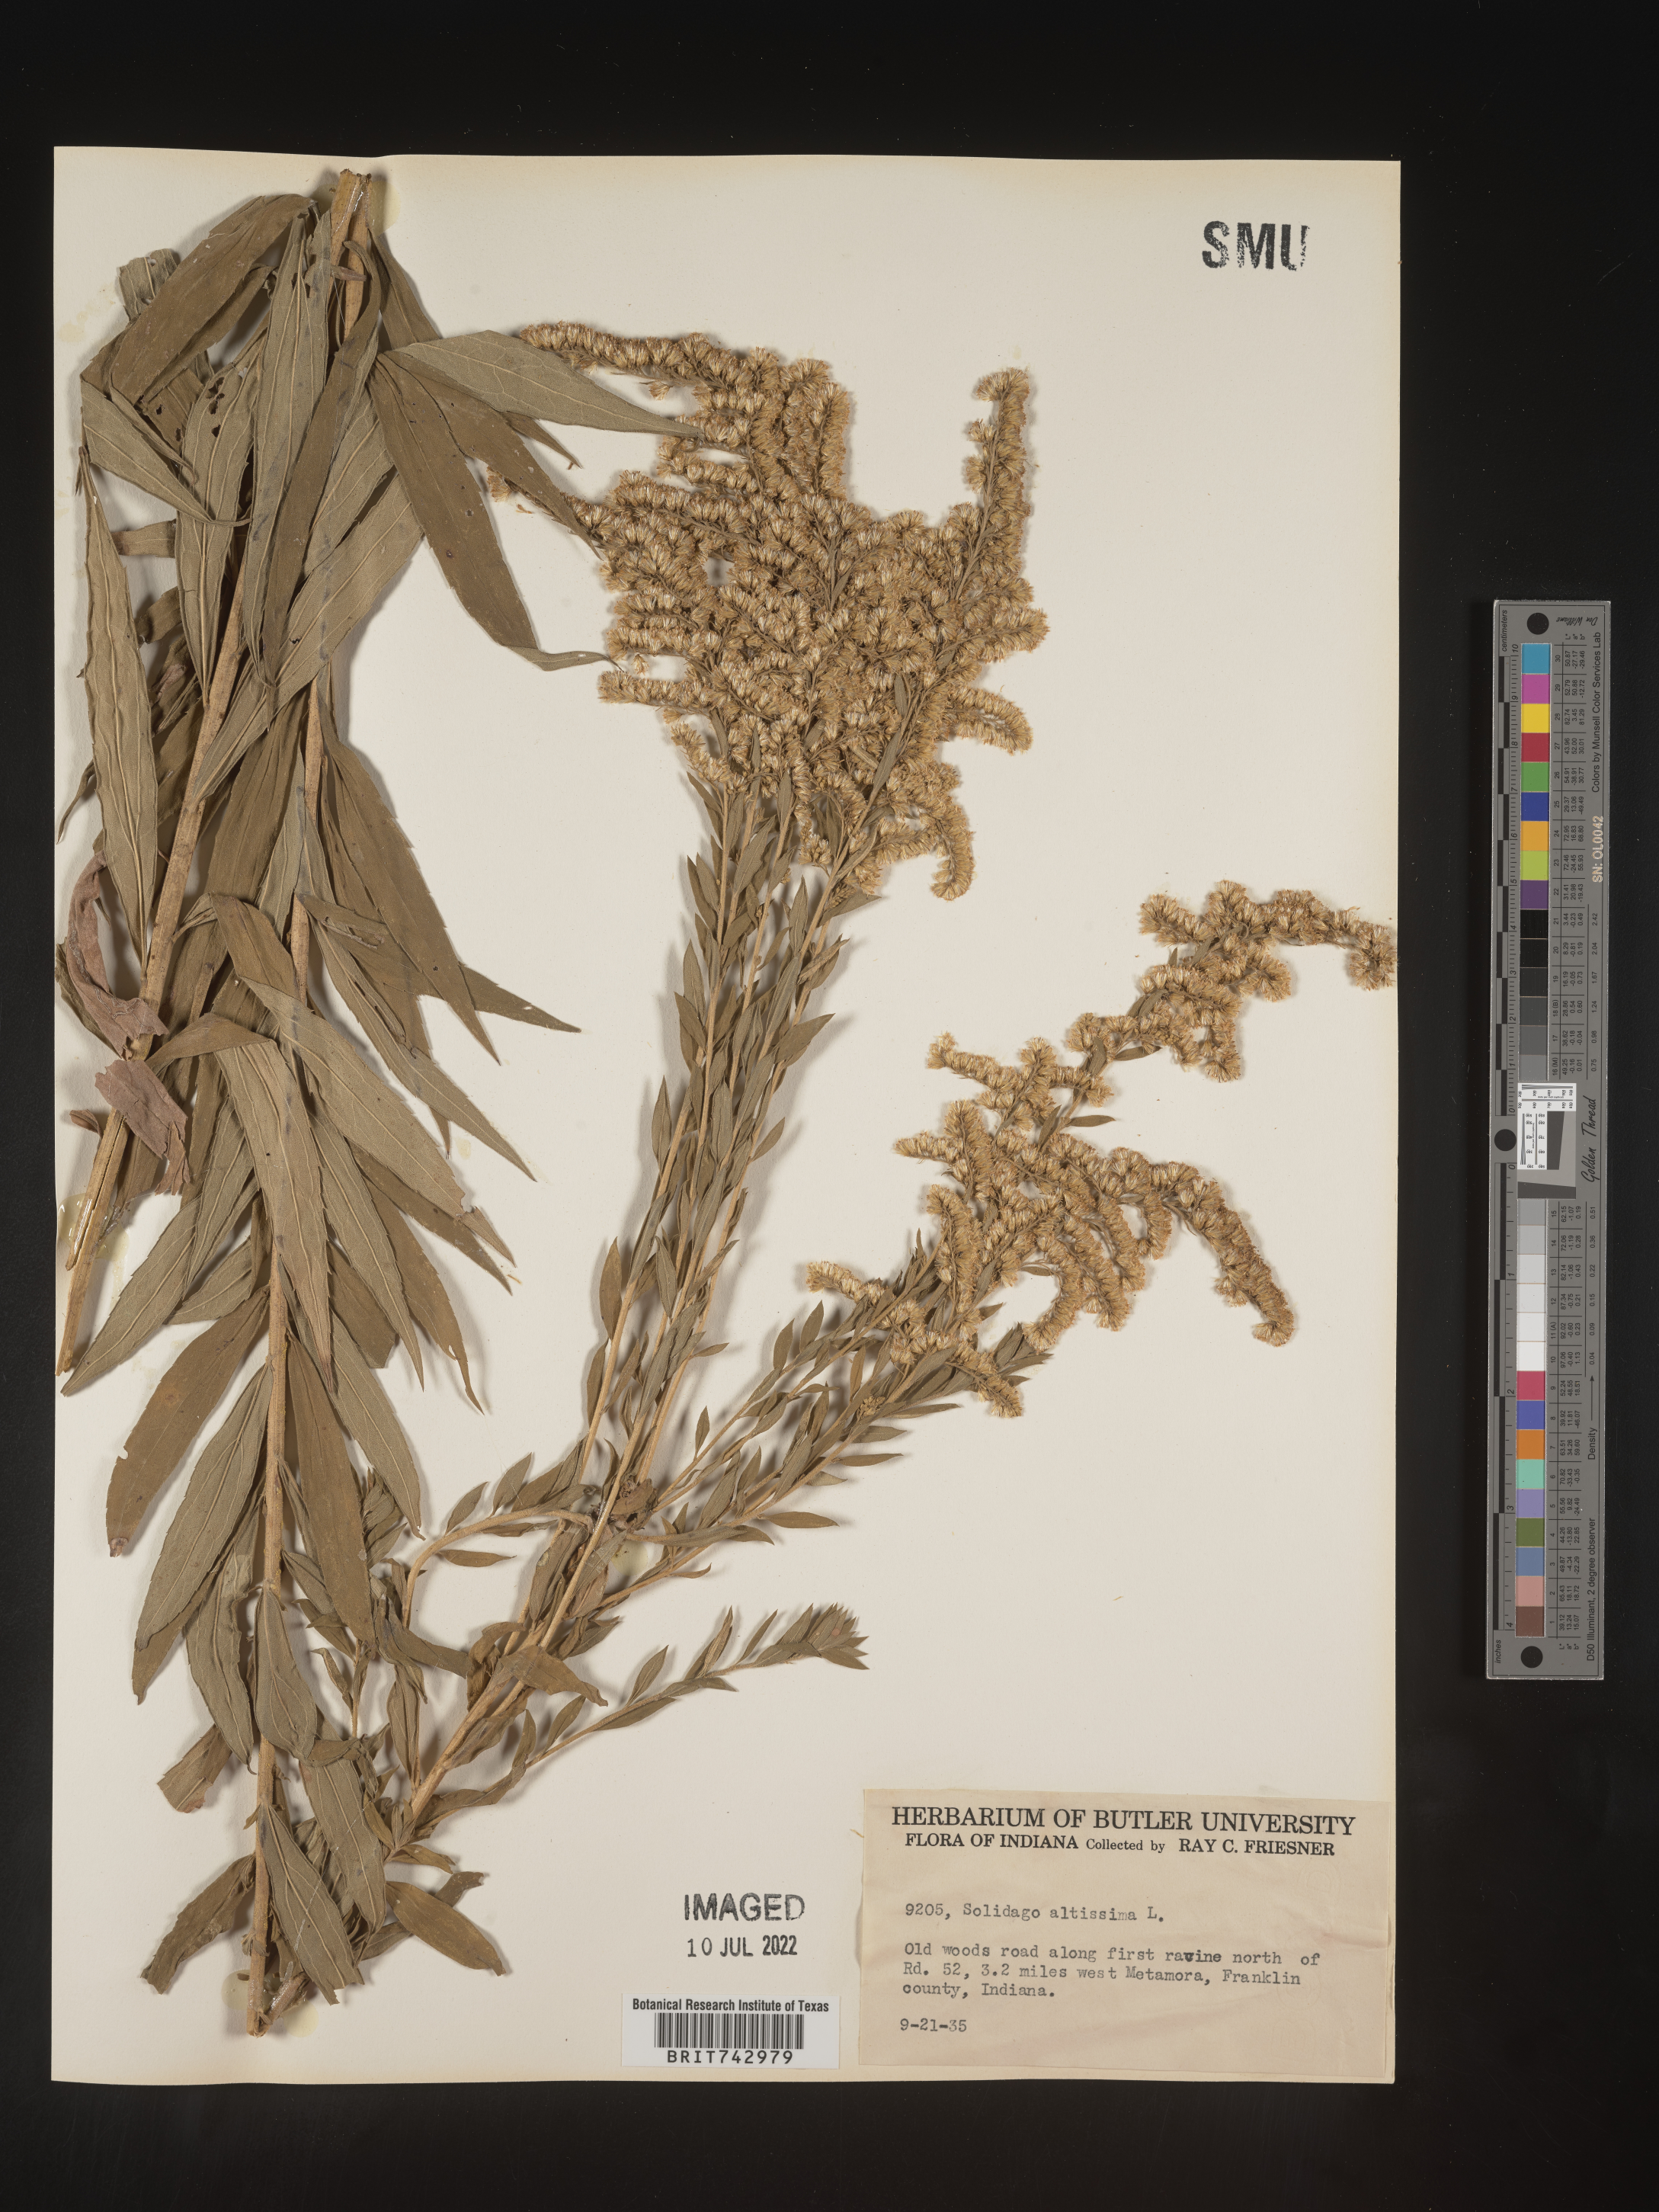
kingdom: Plantae
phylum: Tracheophyta
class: Magnoliopsida
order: Asterales
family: Asteraceae
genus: Solidago
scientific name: Solidago altissima
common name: Late goldenrod
